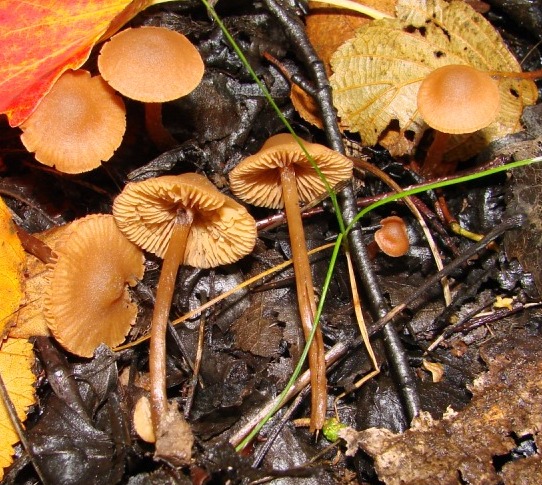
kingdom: Fungi
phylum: Basidiomycota
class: Agaricomycetes
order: Agaricales
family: Hymenogastraceae
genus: Naucoria
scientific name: Naucoria scolecina
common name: mørk elle-knaphat
